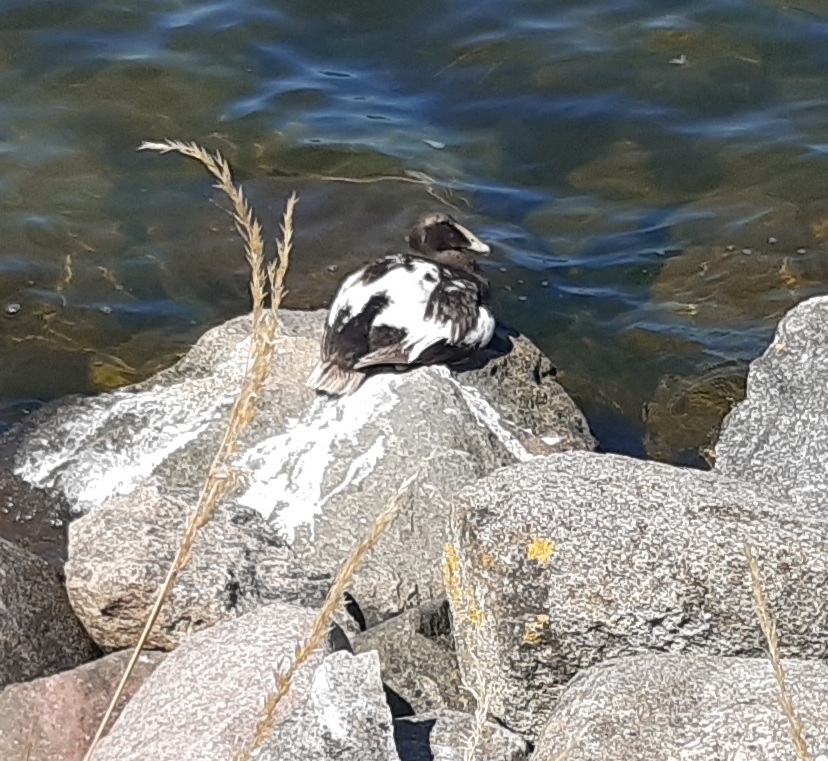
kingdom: Animalia
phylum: Chordata
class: Aves
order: Anseriformes
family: Anatidae
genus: Somateria
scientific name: Somateria mollissima
